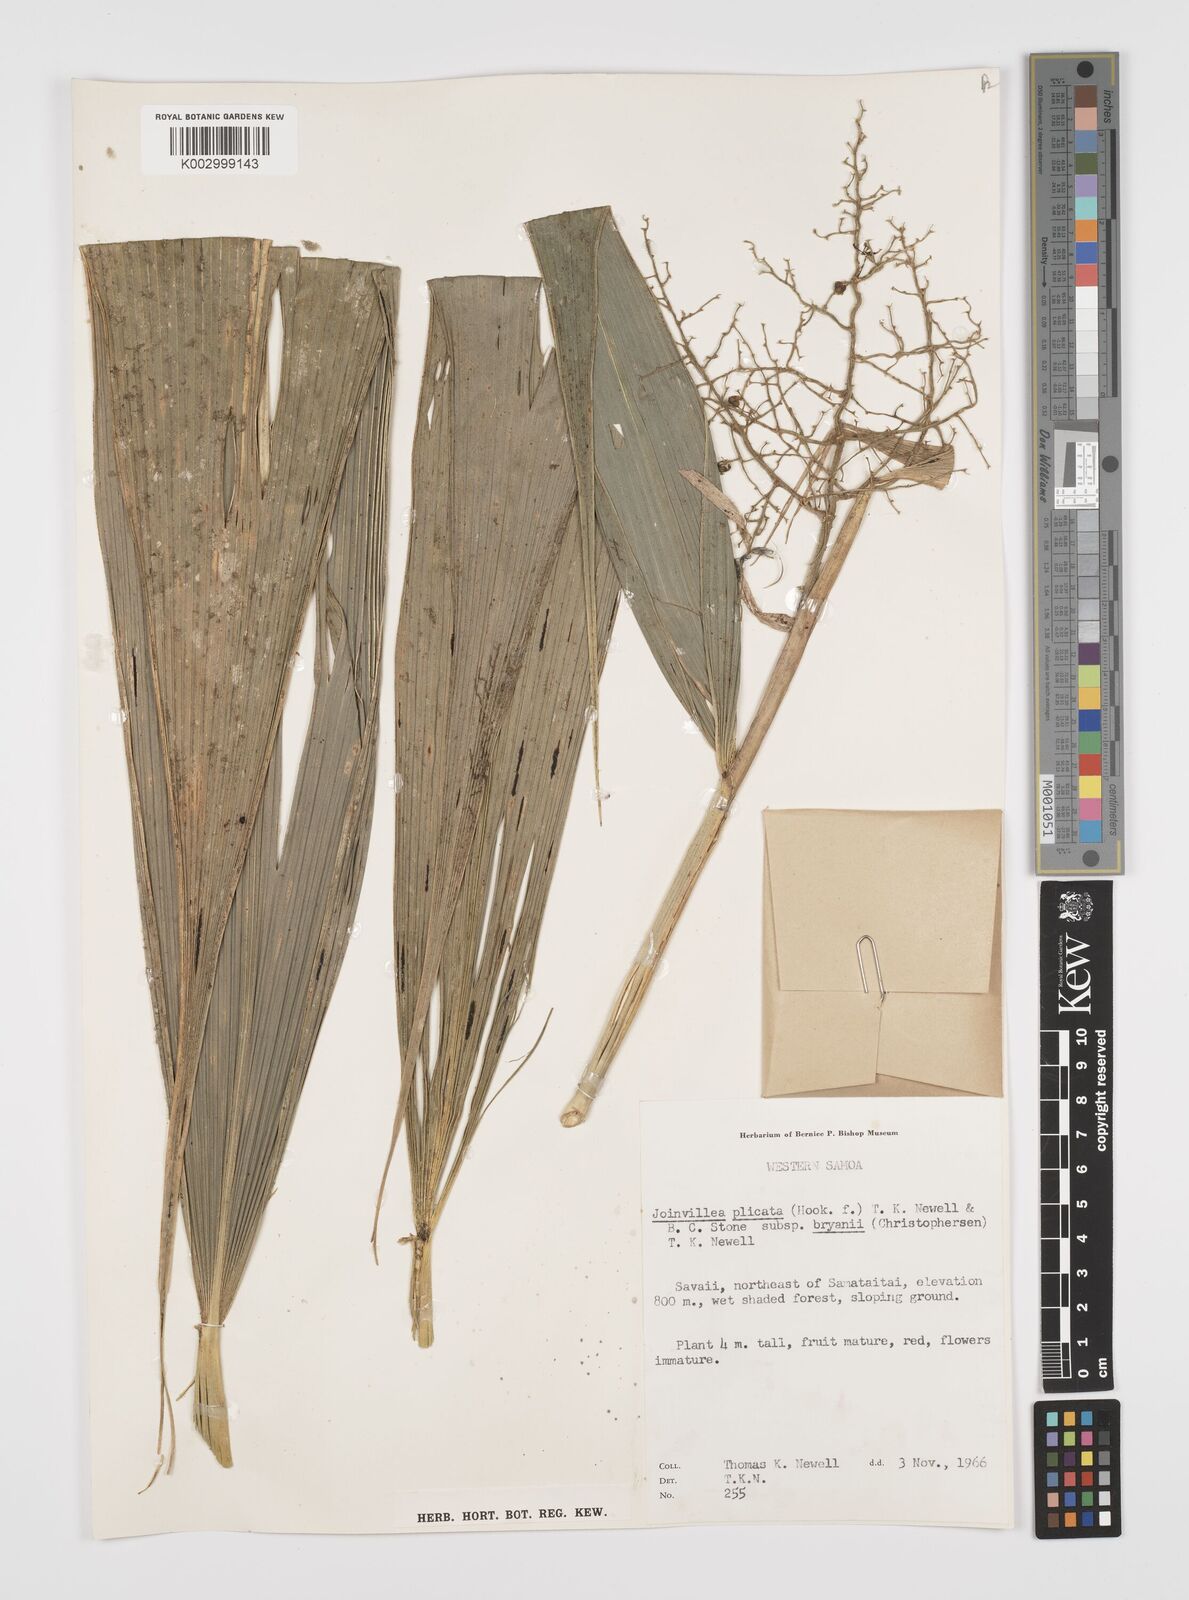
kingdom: Plantae
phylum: Tracheophyta
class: Liliopsida
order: Poales
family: Joinvilleaceae
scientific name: Joinvilleaceae
